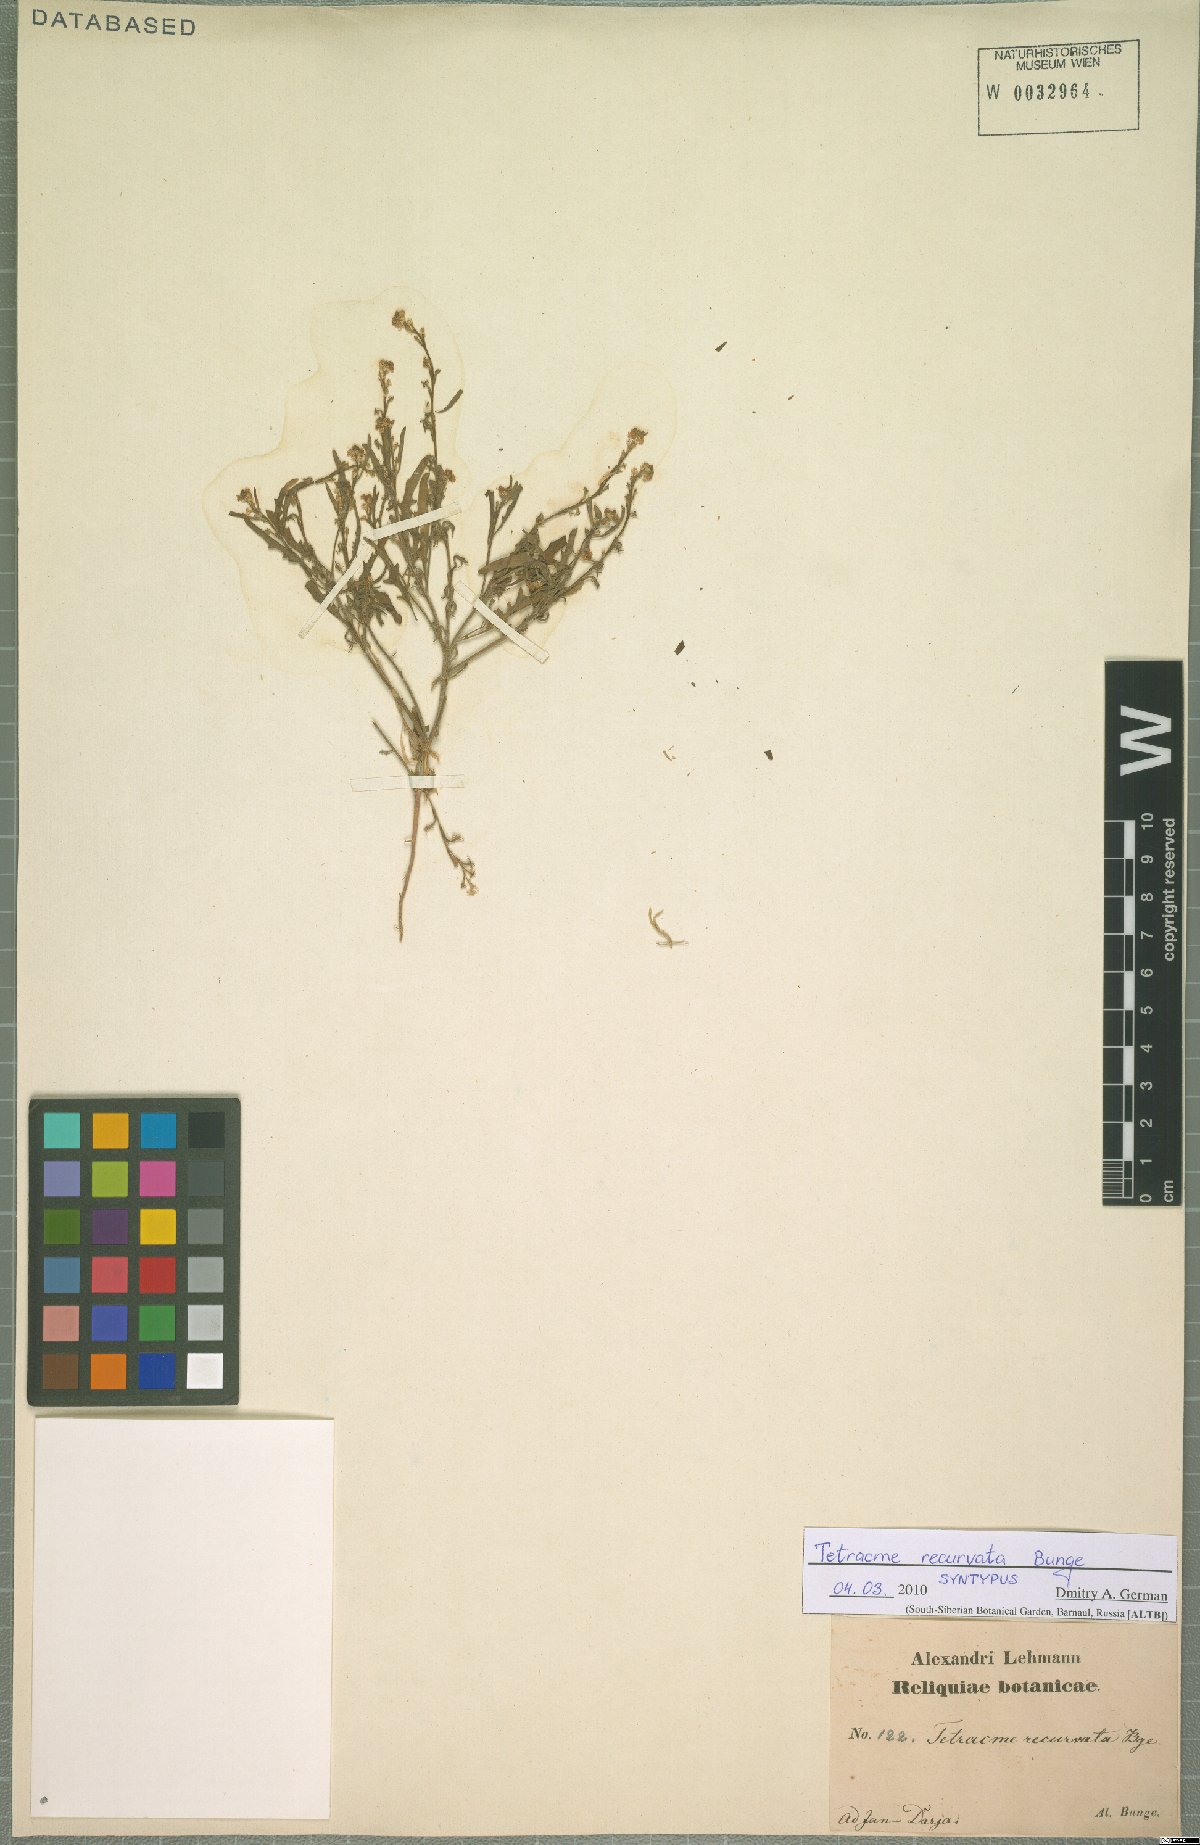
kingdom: Plantae
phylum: Tracheophyta
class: Magnoliopsida
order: Brassicales
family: Brassicaceae
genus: Tetracme
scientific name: Tetracme recurvata
